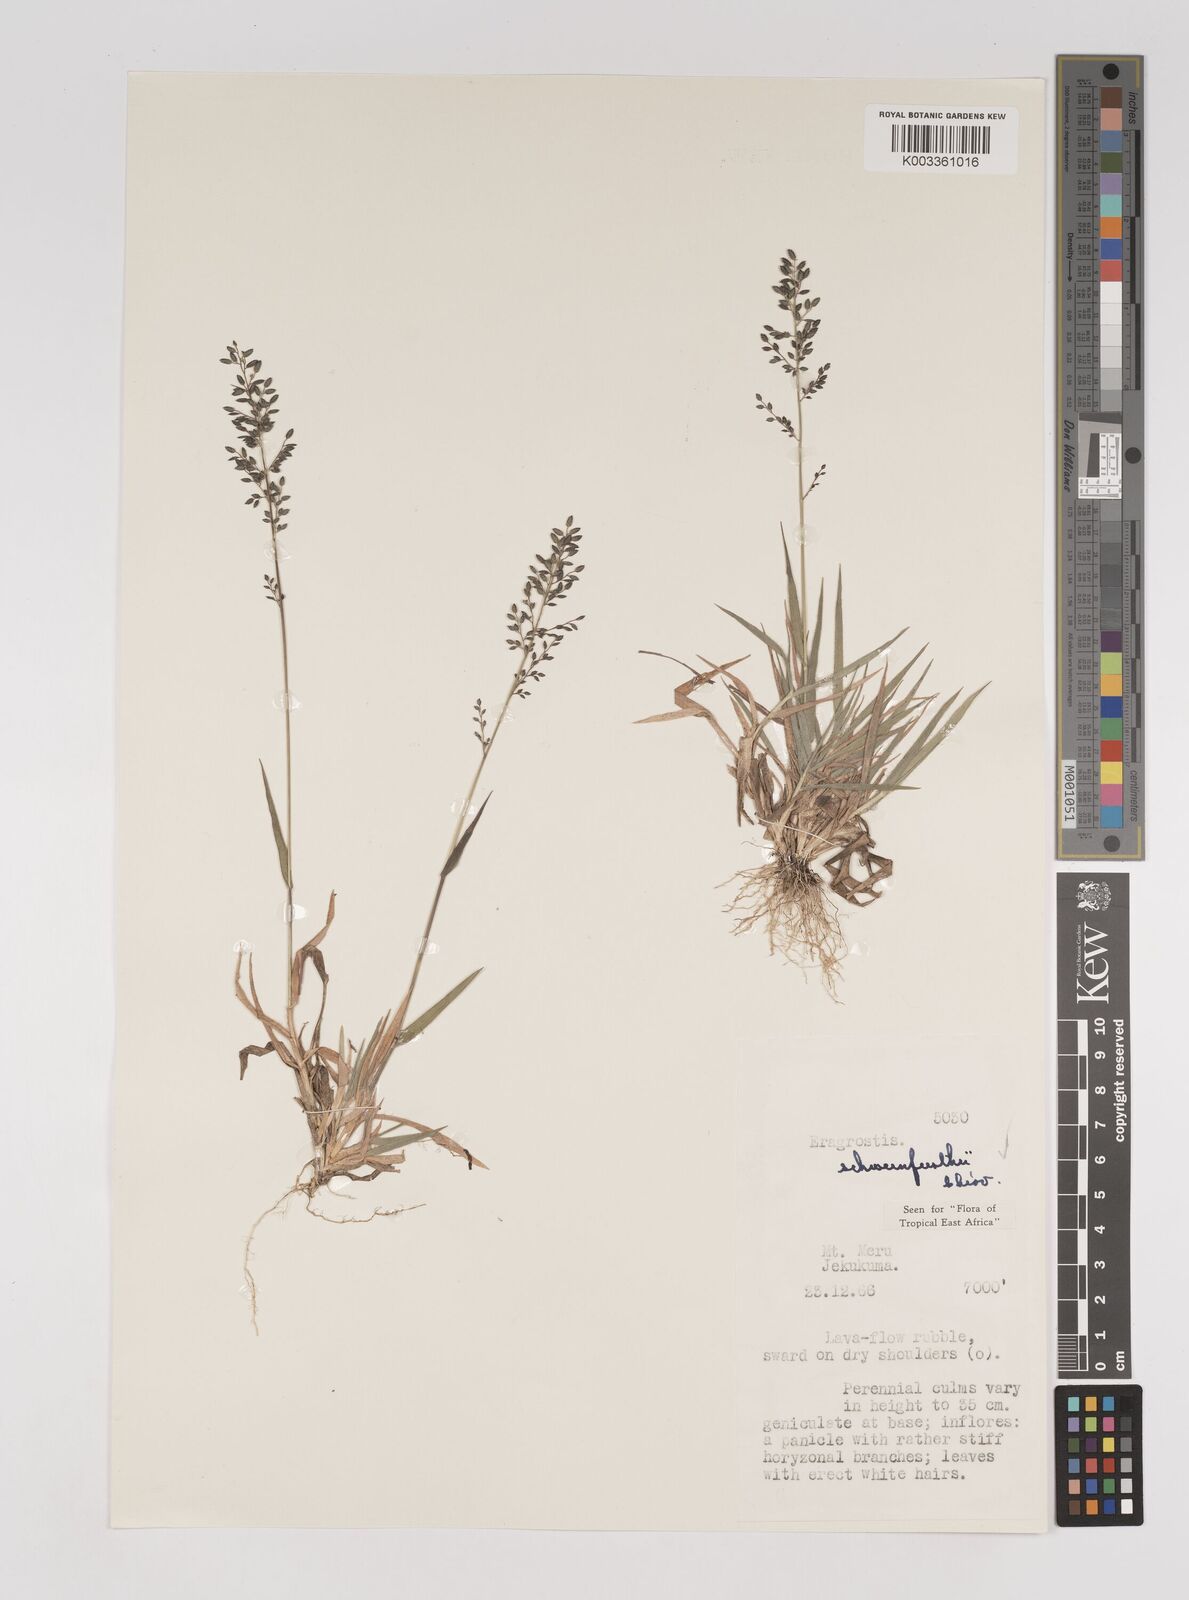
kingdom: Plantae
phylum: Tracheophyta
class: Liliopsida
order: Poales
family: Poaceae
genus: Eragrostis
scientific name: Eragrostis schweinfurthii
